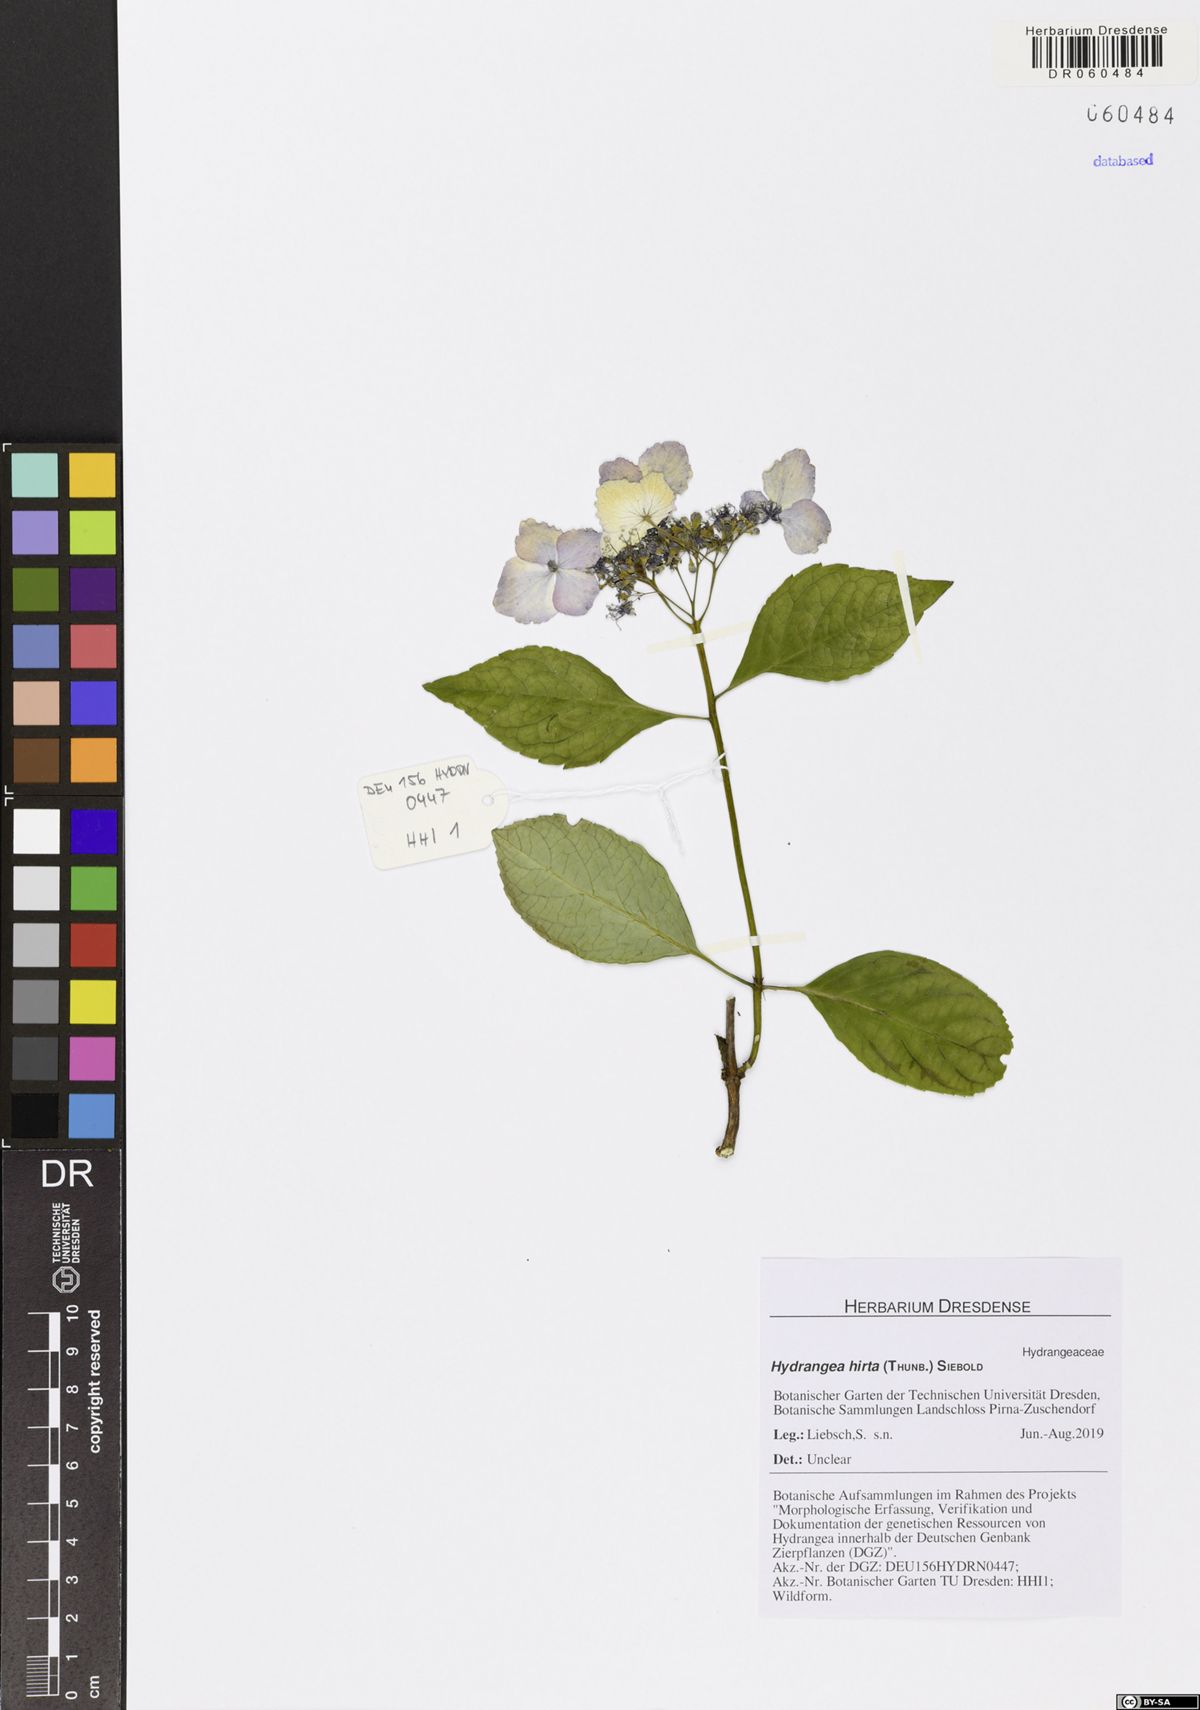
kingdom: Plantae
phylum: Tracheophyta
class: Magnoliopsida
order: Cornales
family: Hydrangeaceae
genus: Hydrangea
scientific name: Hydrangea hirta
